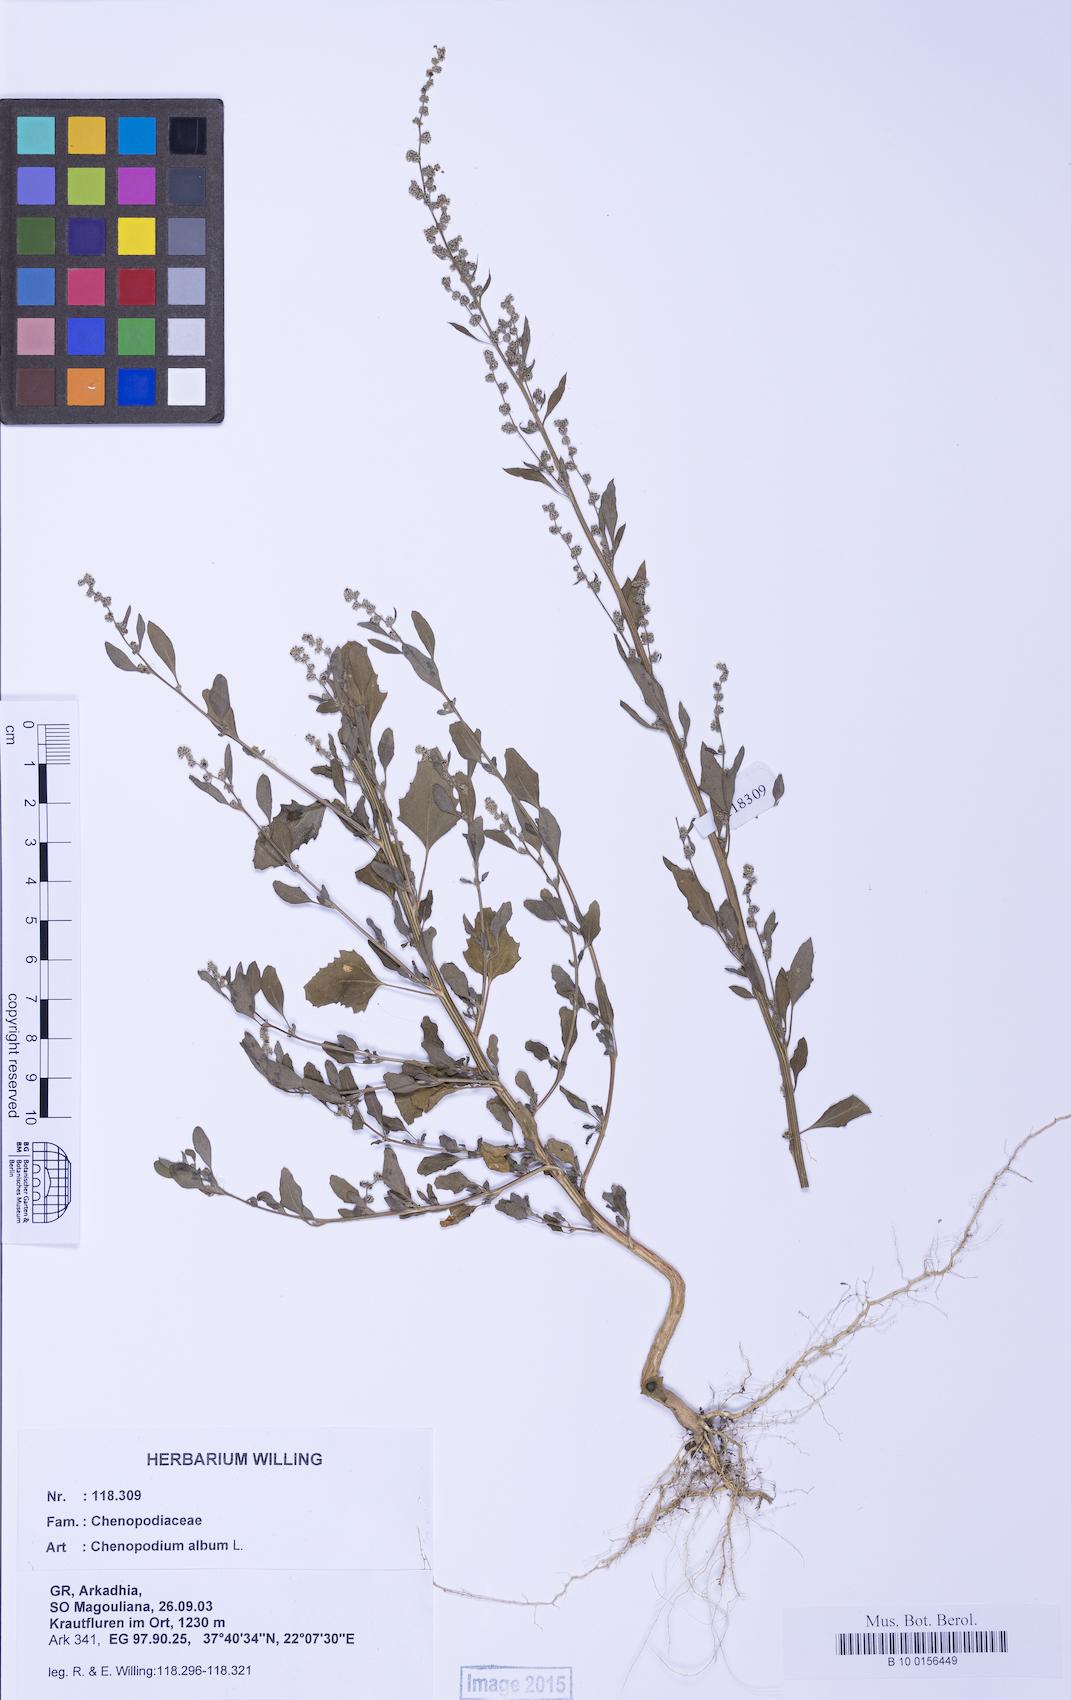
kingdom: Plantae
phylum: Tracheophyta
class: Magnoliopsida
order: Caryophyllales
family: Amaranthaceae
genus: Chenopodium
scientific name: Chenopodium album
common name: Fat-hen
